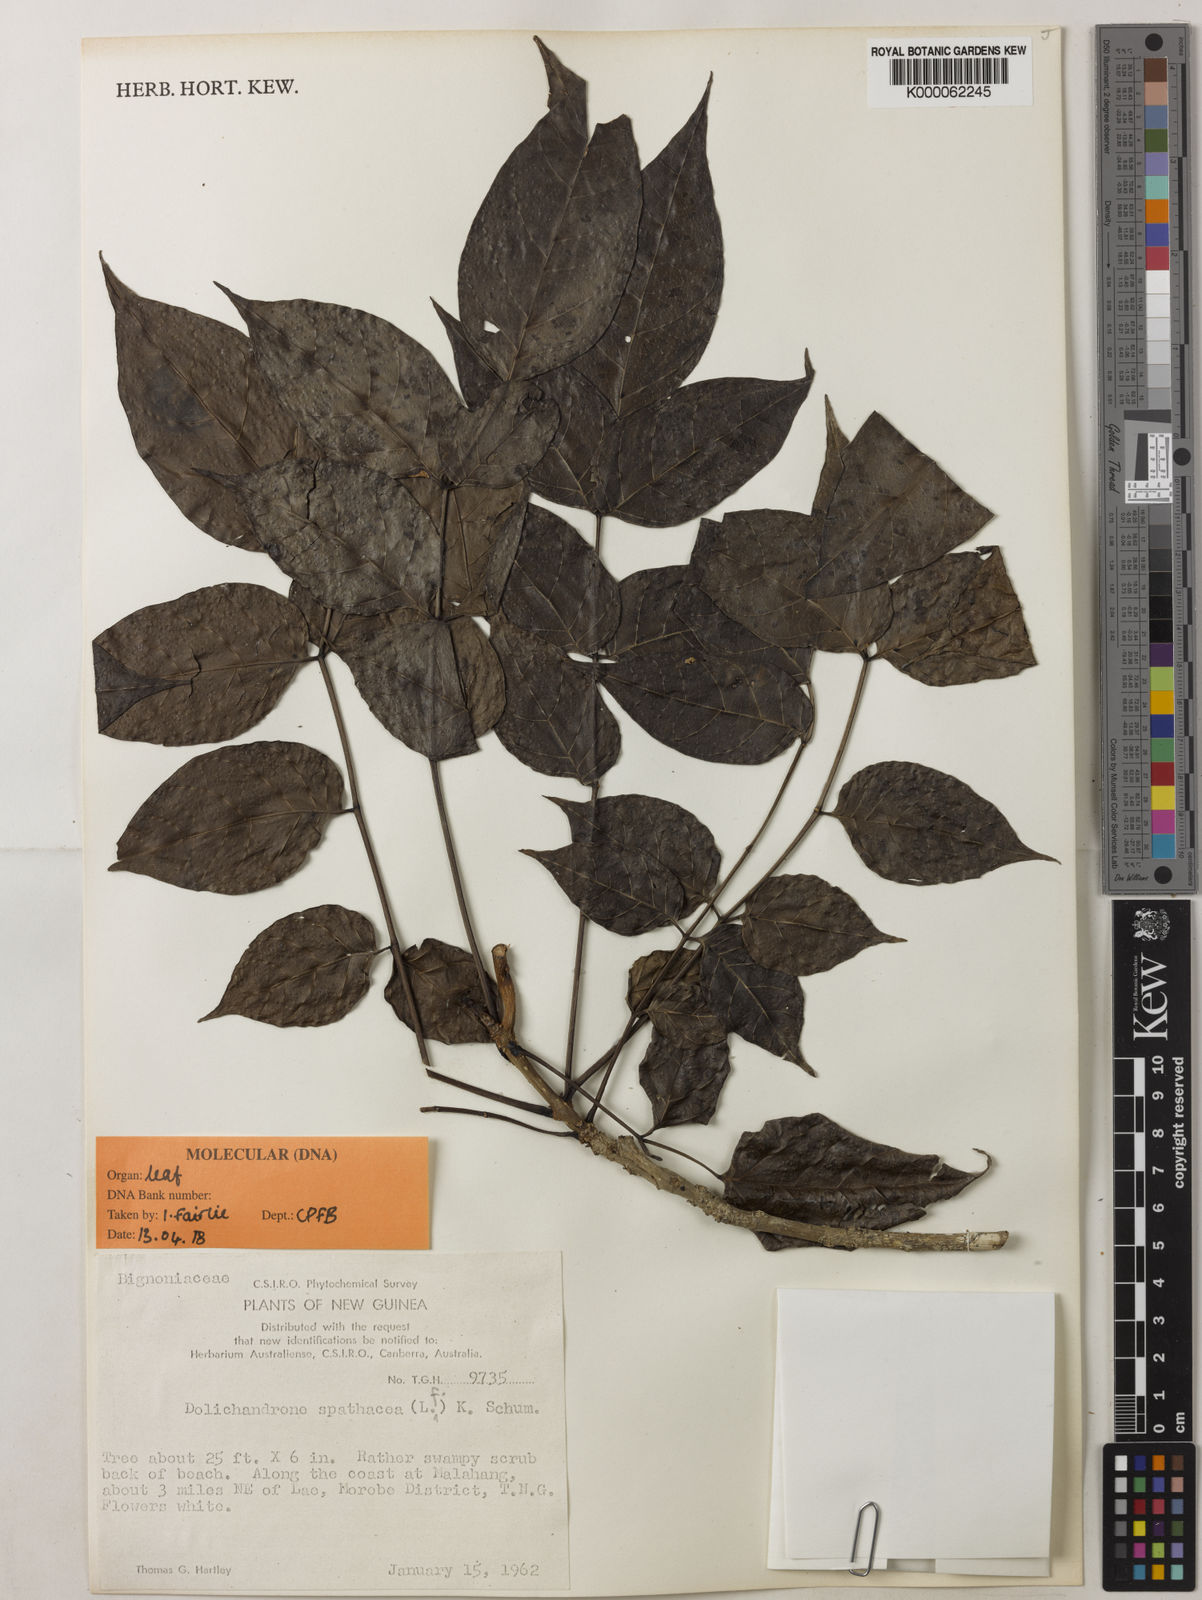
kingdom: Plantae
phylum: Tracheophyta
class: Magnoliopsida
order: Lamiales
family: Bignoniaceae
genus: Dolichandrone
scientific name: Dolichandrone
